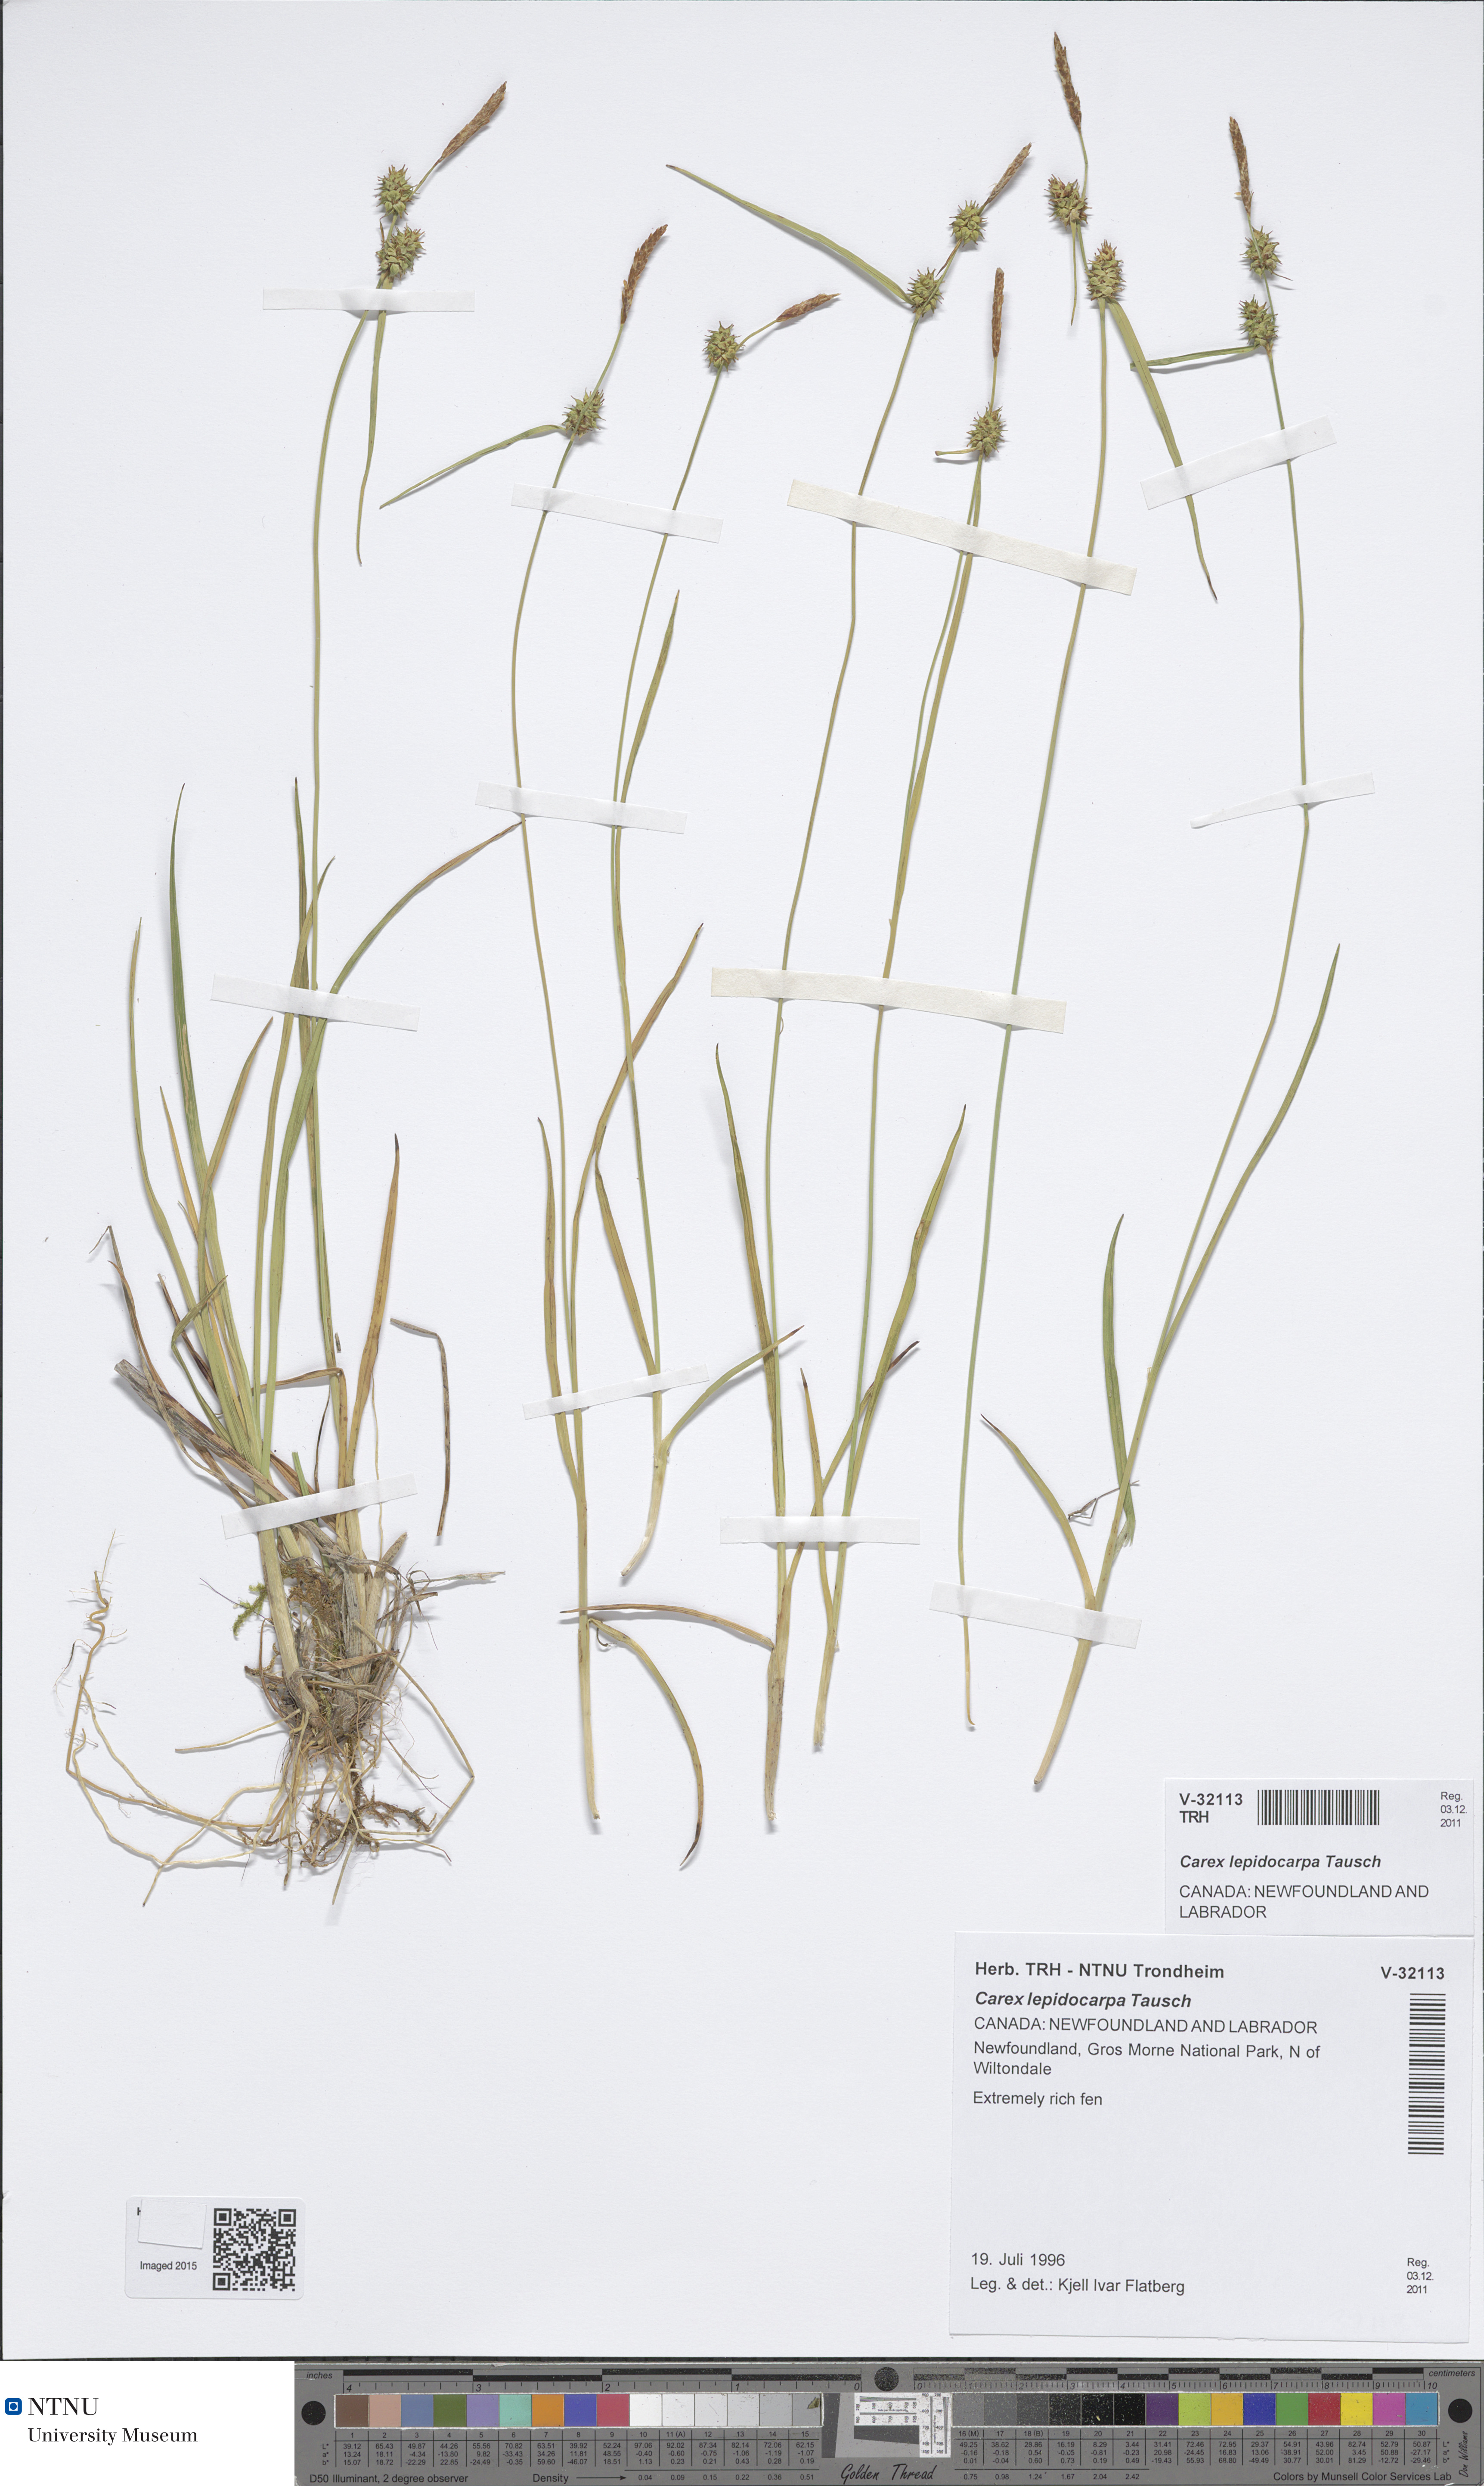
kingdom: Plantae
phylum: Tracheophyta
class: Liliopsida
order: Poales
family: Cyperaceae
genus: Carex
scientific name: Carex lepidocarpa
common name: Long-stalked yellow-sedge
